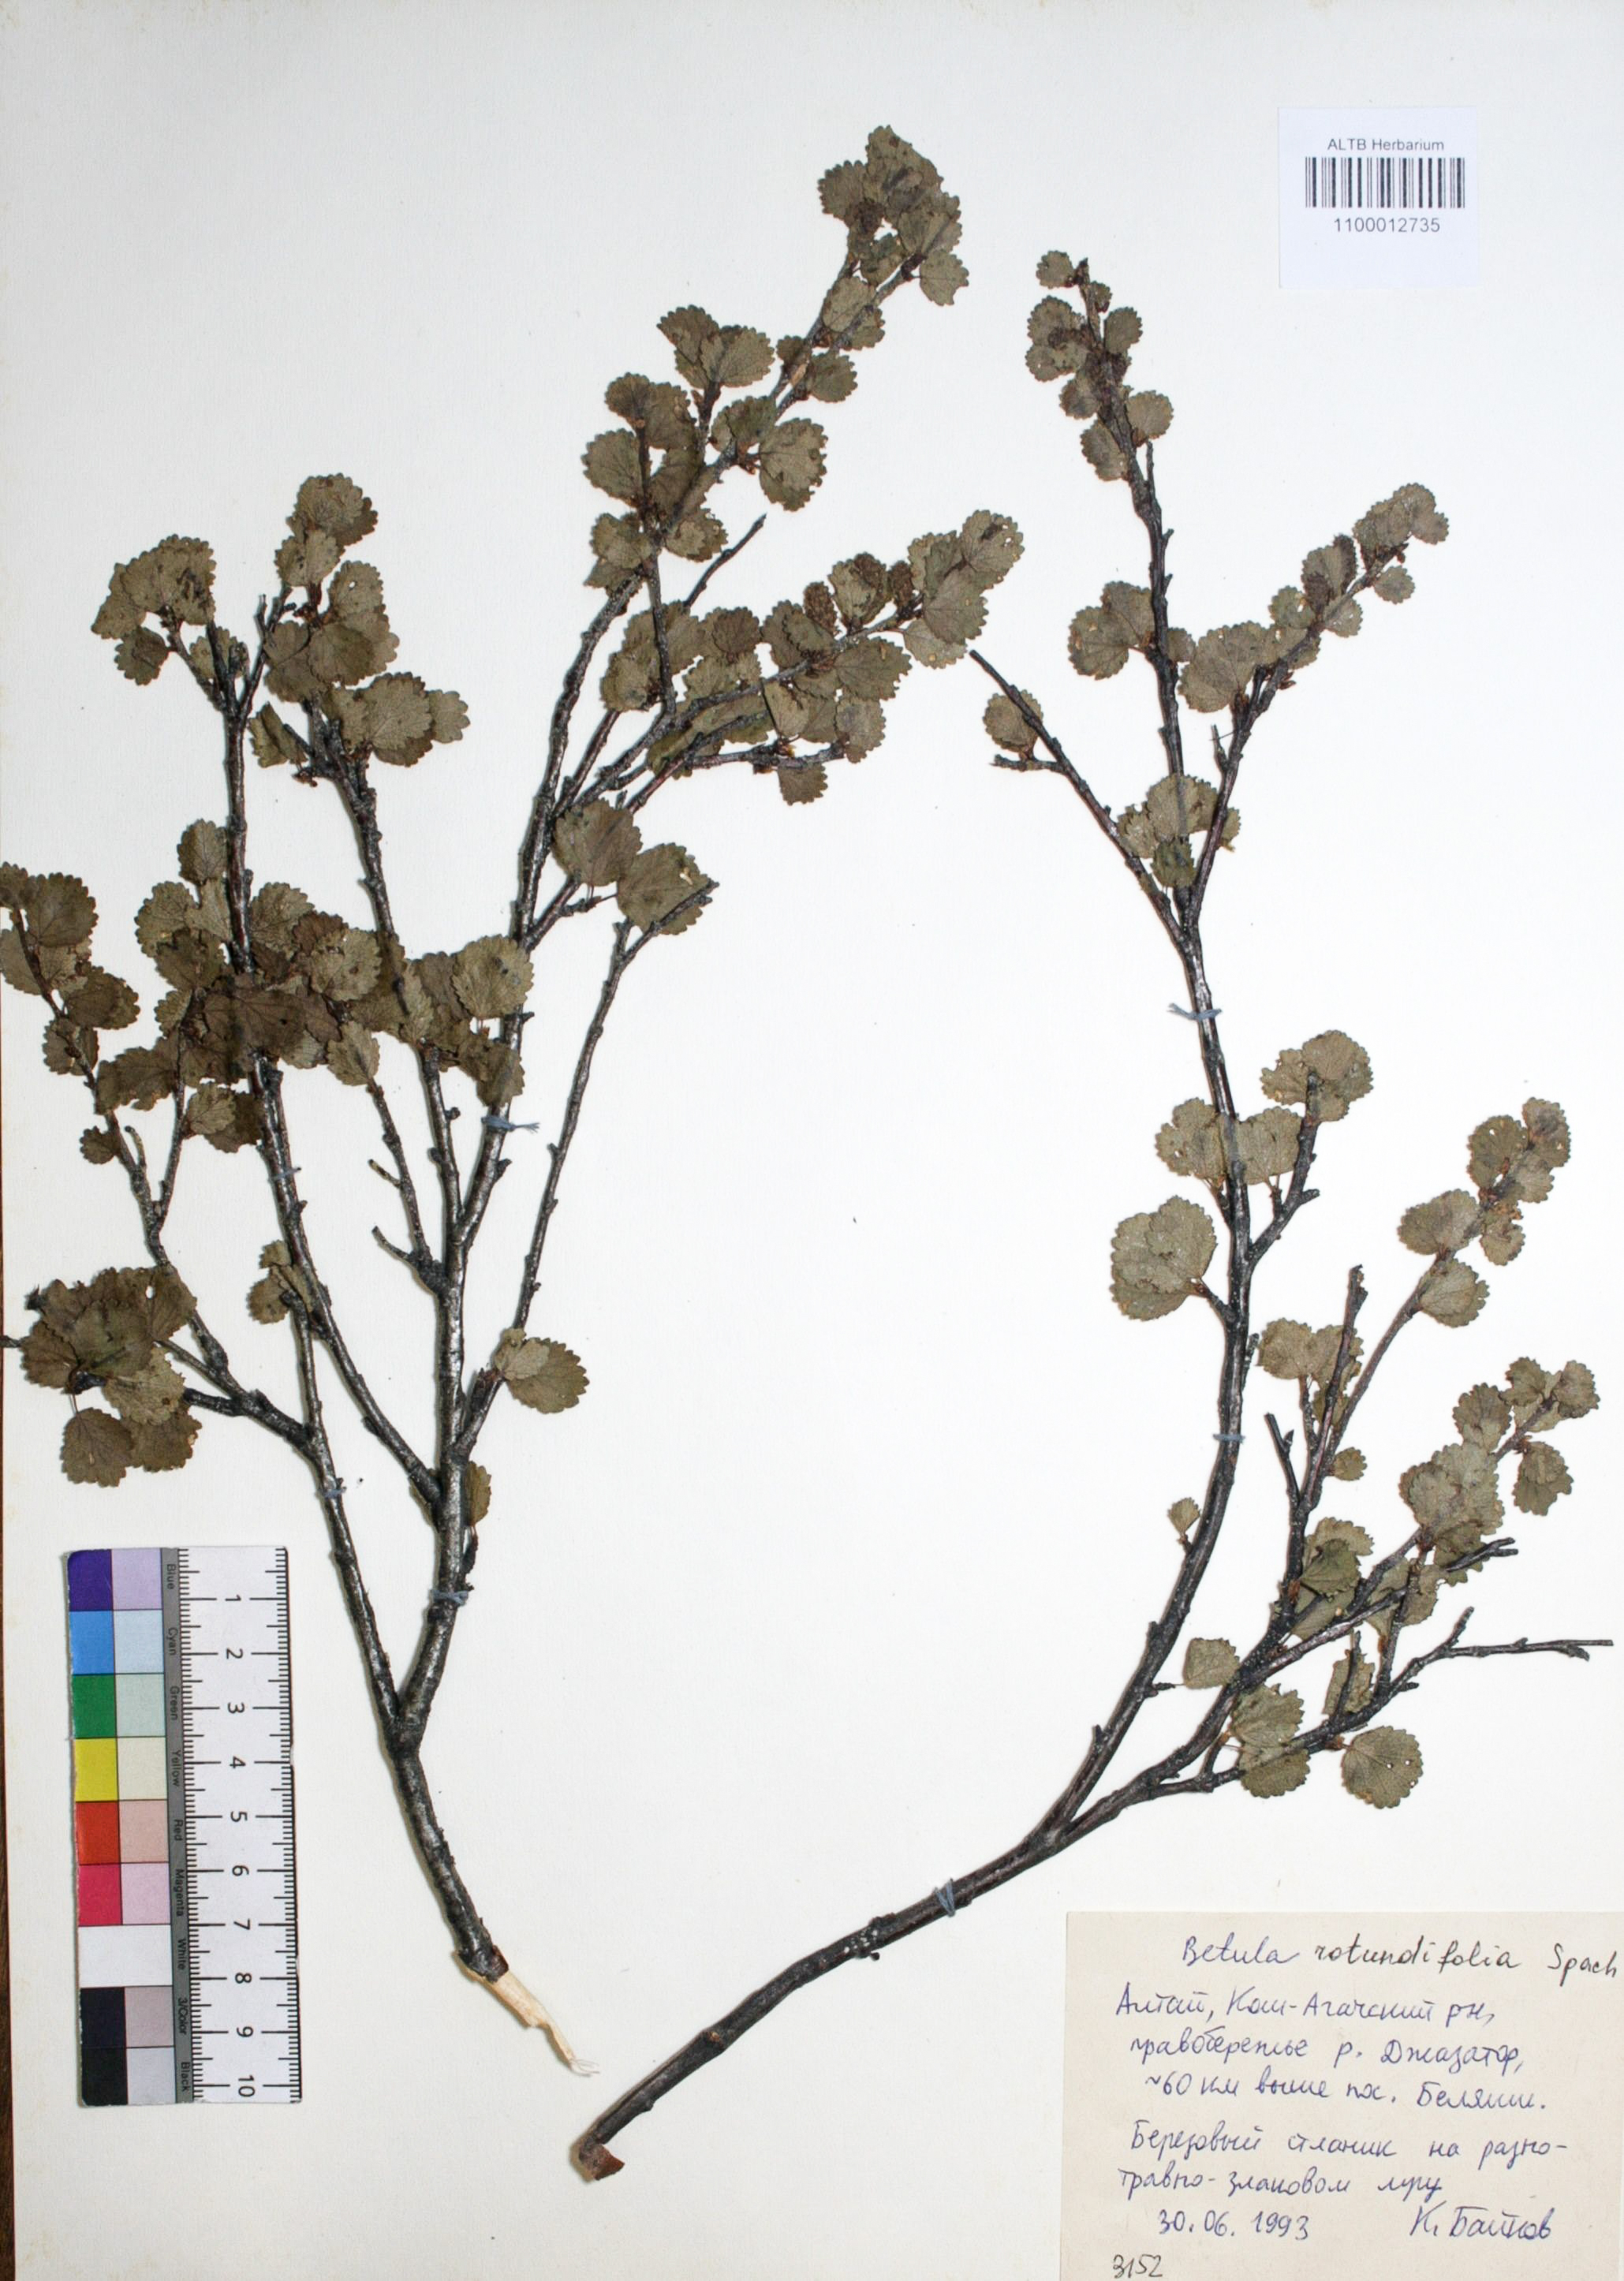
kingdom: Plantae
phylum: Tracheophyta
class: Magnoliopsida
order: Fagales
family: Betulaceae
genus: Betula
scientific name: Betula glandulosa
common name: Dwarf birch
